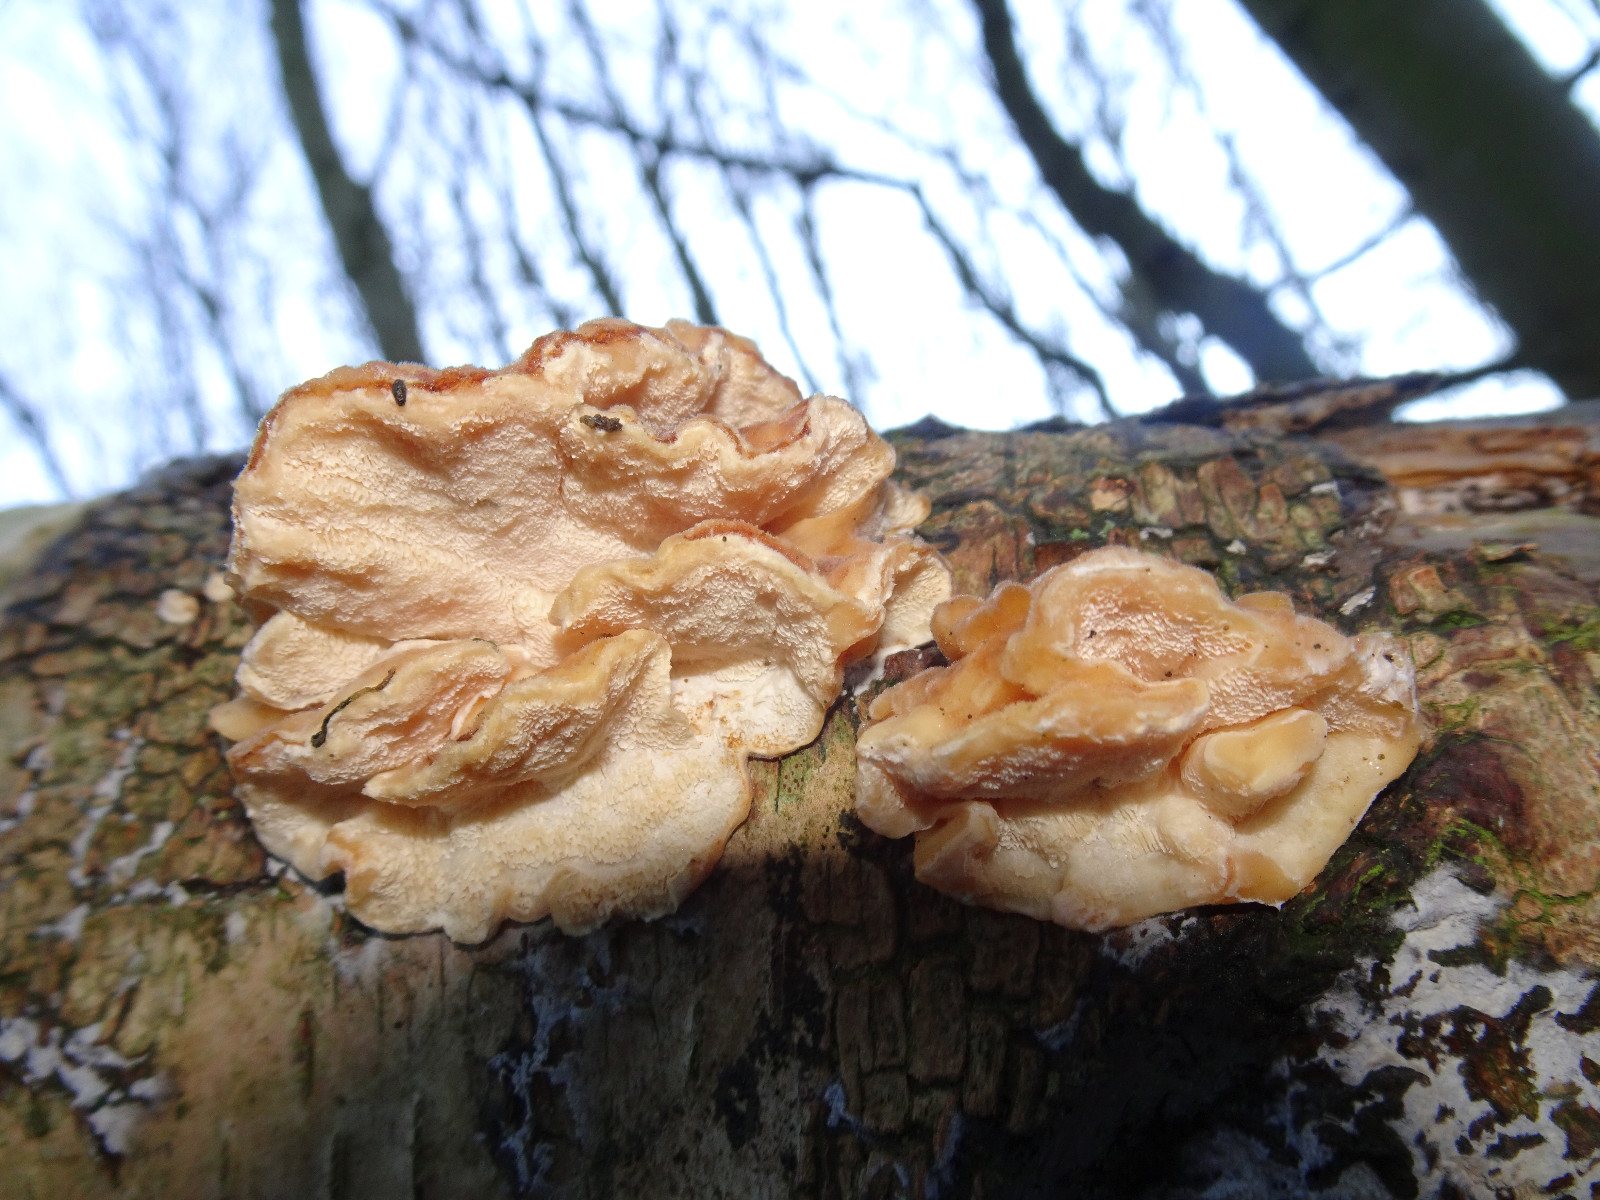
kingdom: Fungi
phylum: Basidiomycota
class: Agaricomycetes
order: Polyporales
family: Polyporaceae
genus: Trametes
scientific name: Trametes ochracea
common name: bæltet læderporesvamp
